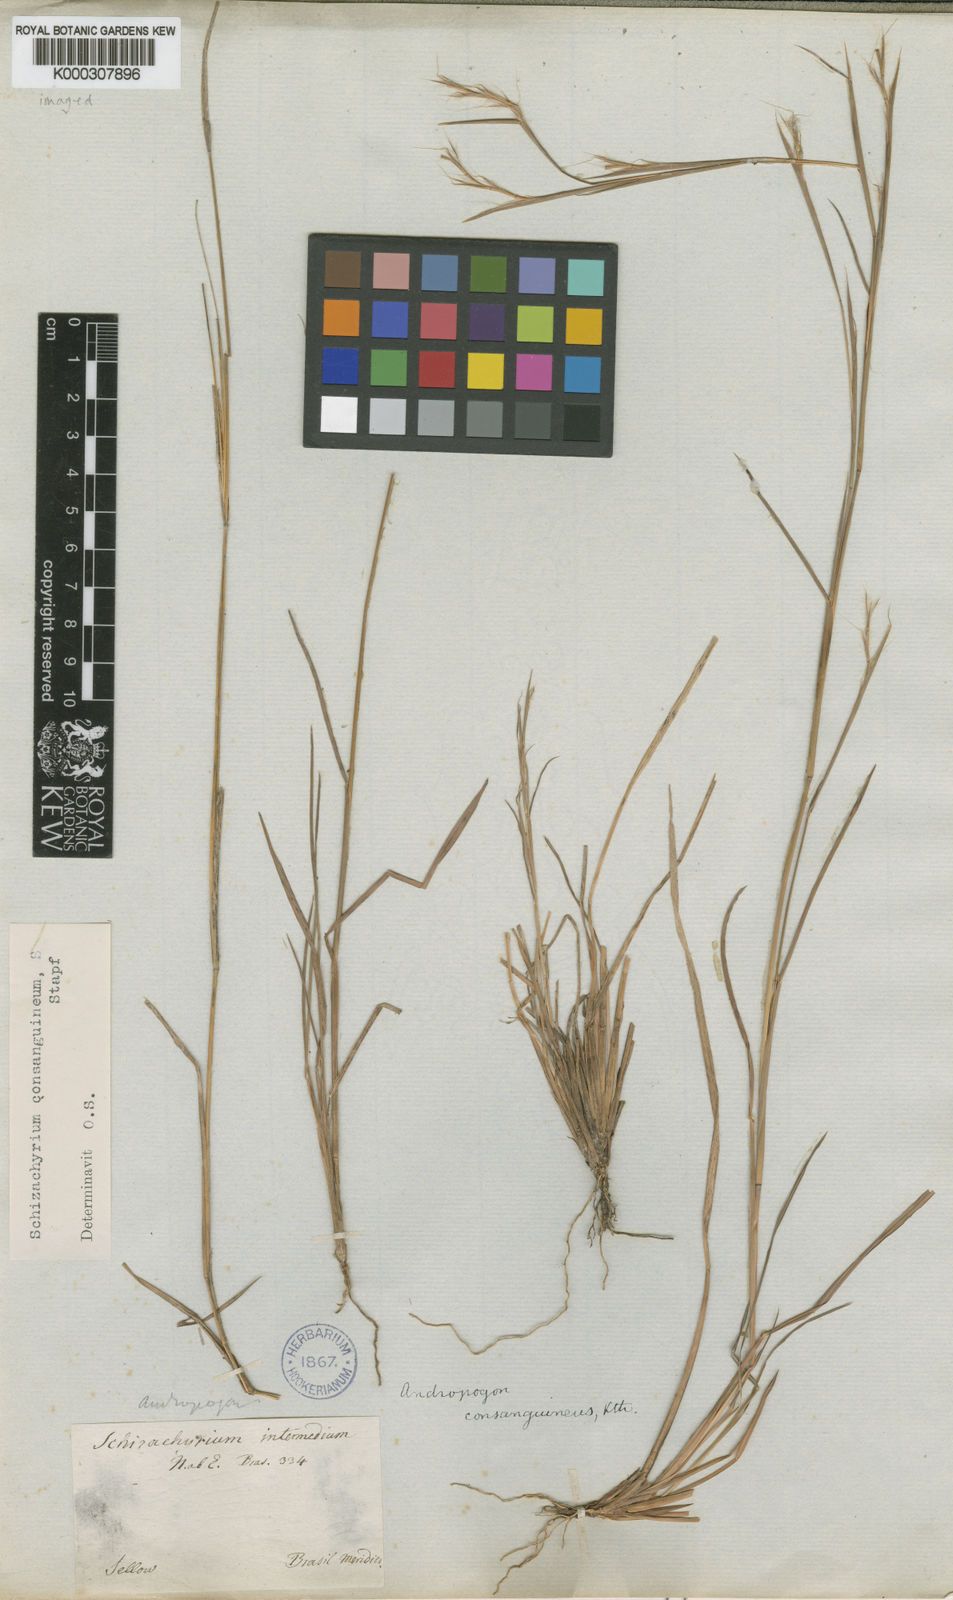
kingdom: Plantae
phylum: Tracheophyta
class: Liliopsida
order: Poales
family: Poaceae
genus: Schizachyrium
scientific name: Schizachyrium spicatum
